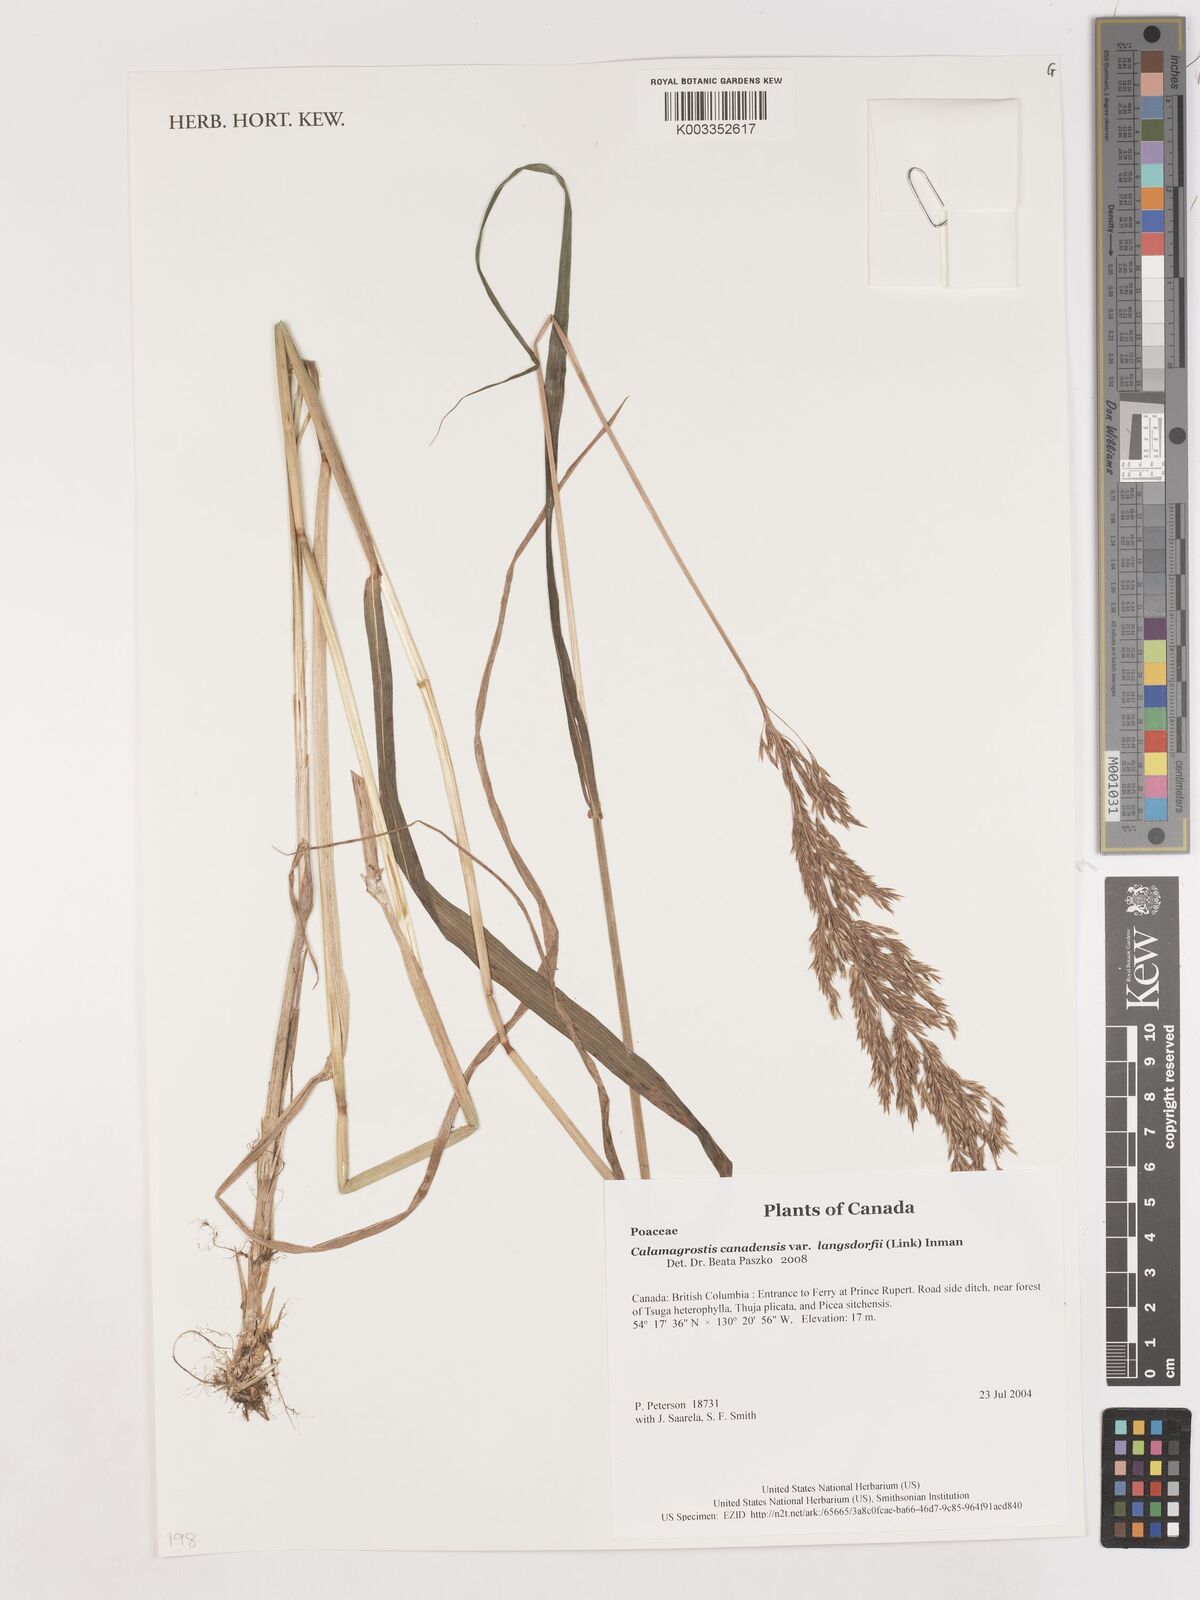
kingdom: Plantae
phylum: Tracheophyta
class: Liliopsida
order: Poales
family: Poaceae
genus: Calamagrostis
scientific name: Calamagrostis canadensis
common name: Canada bluejoint
